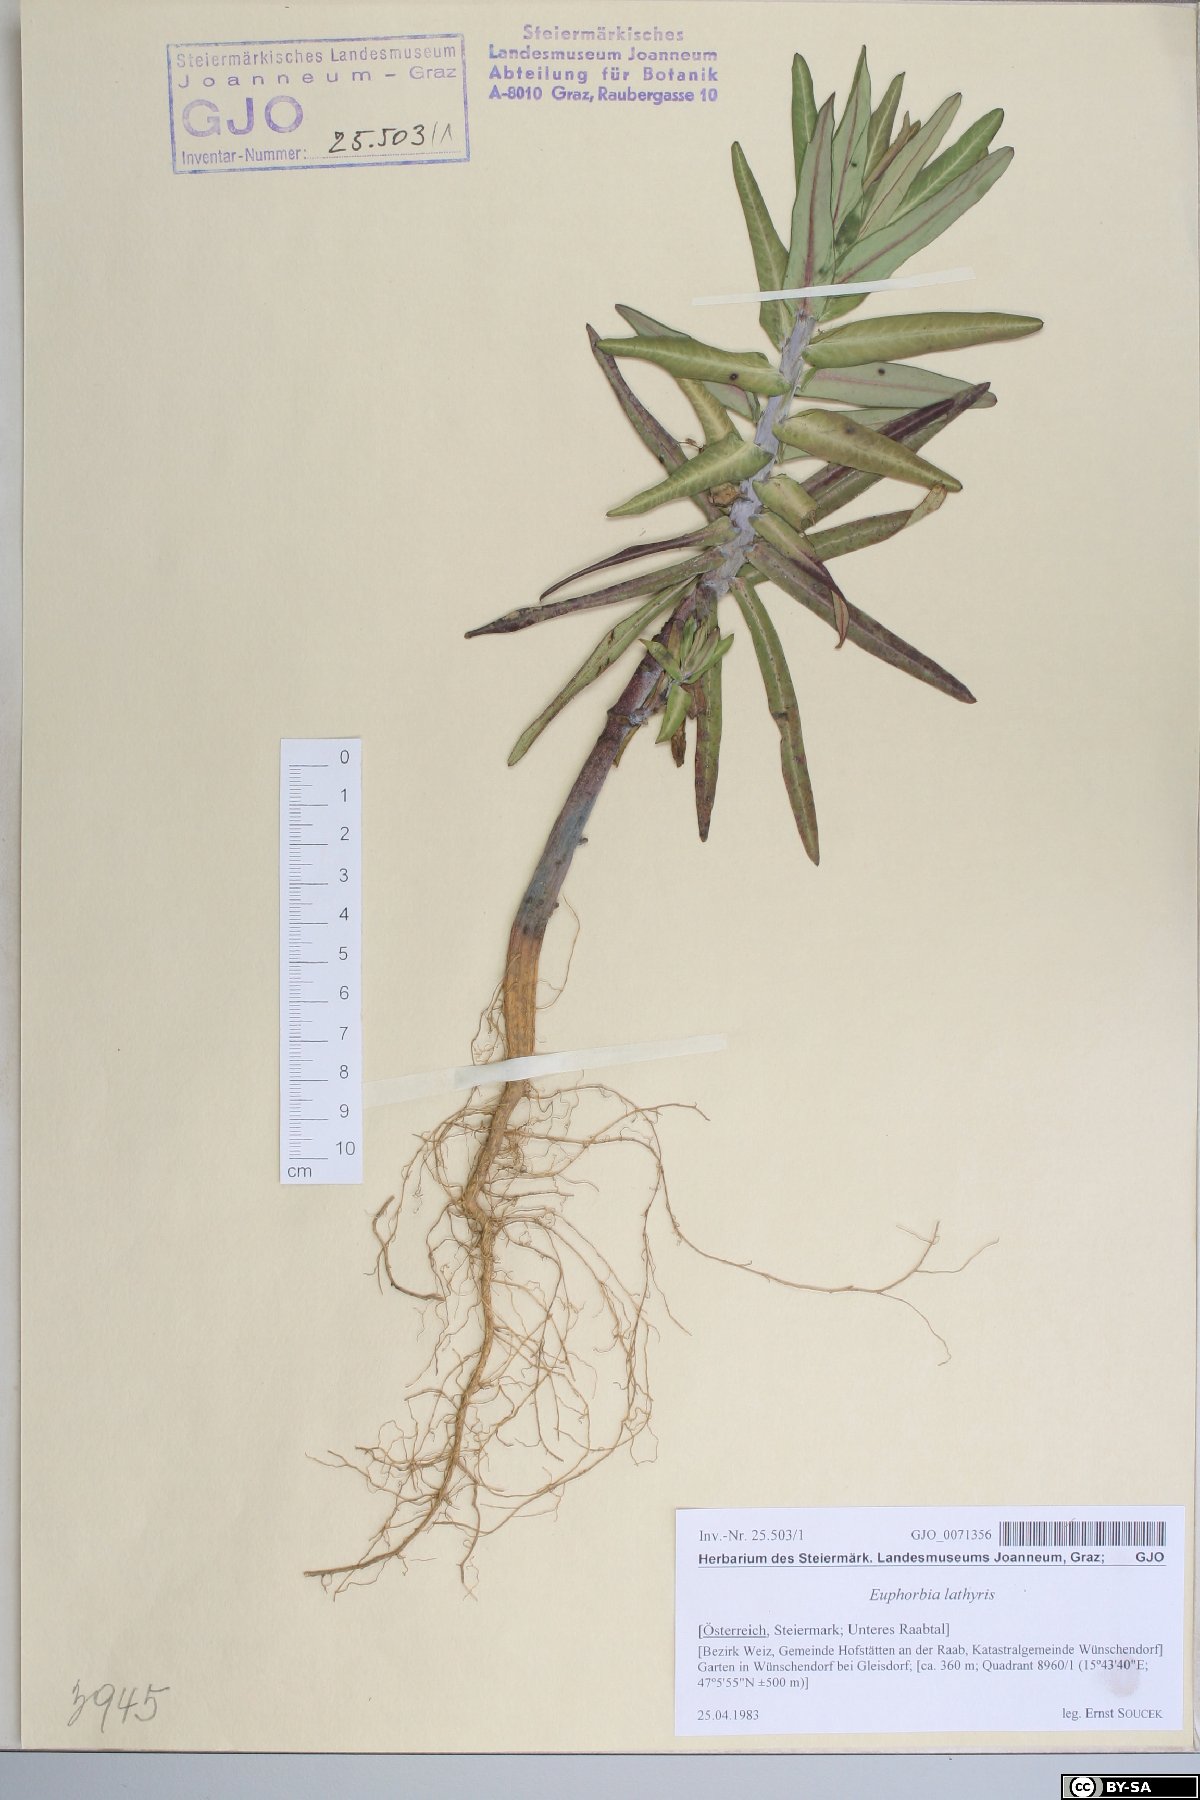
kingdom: Plantae
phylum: Tracheophyta
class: Magnoliopsida
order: Malpighiales
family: Euphorbiaceae
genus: Euphorbia
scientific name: Euphorbia lathyris
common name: Caper spurge
